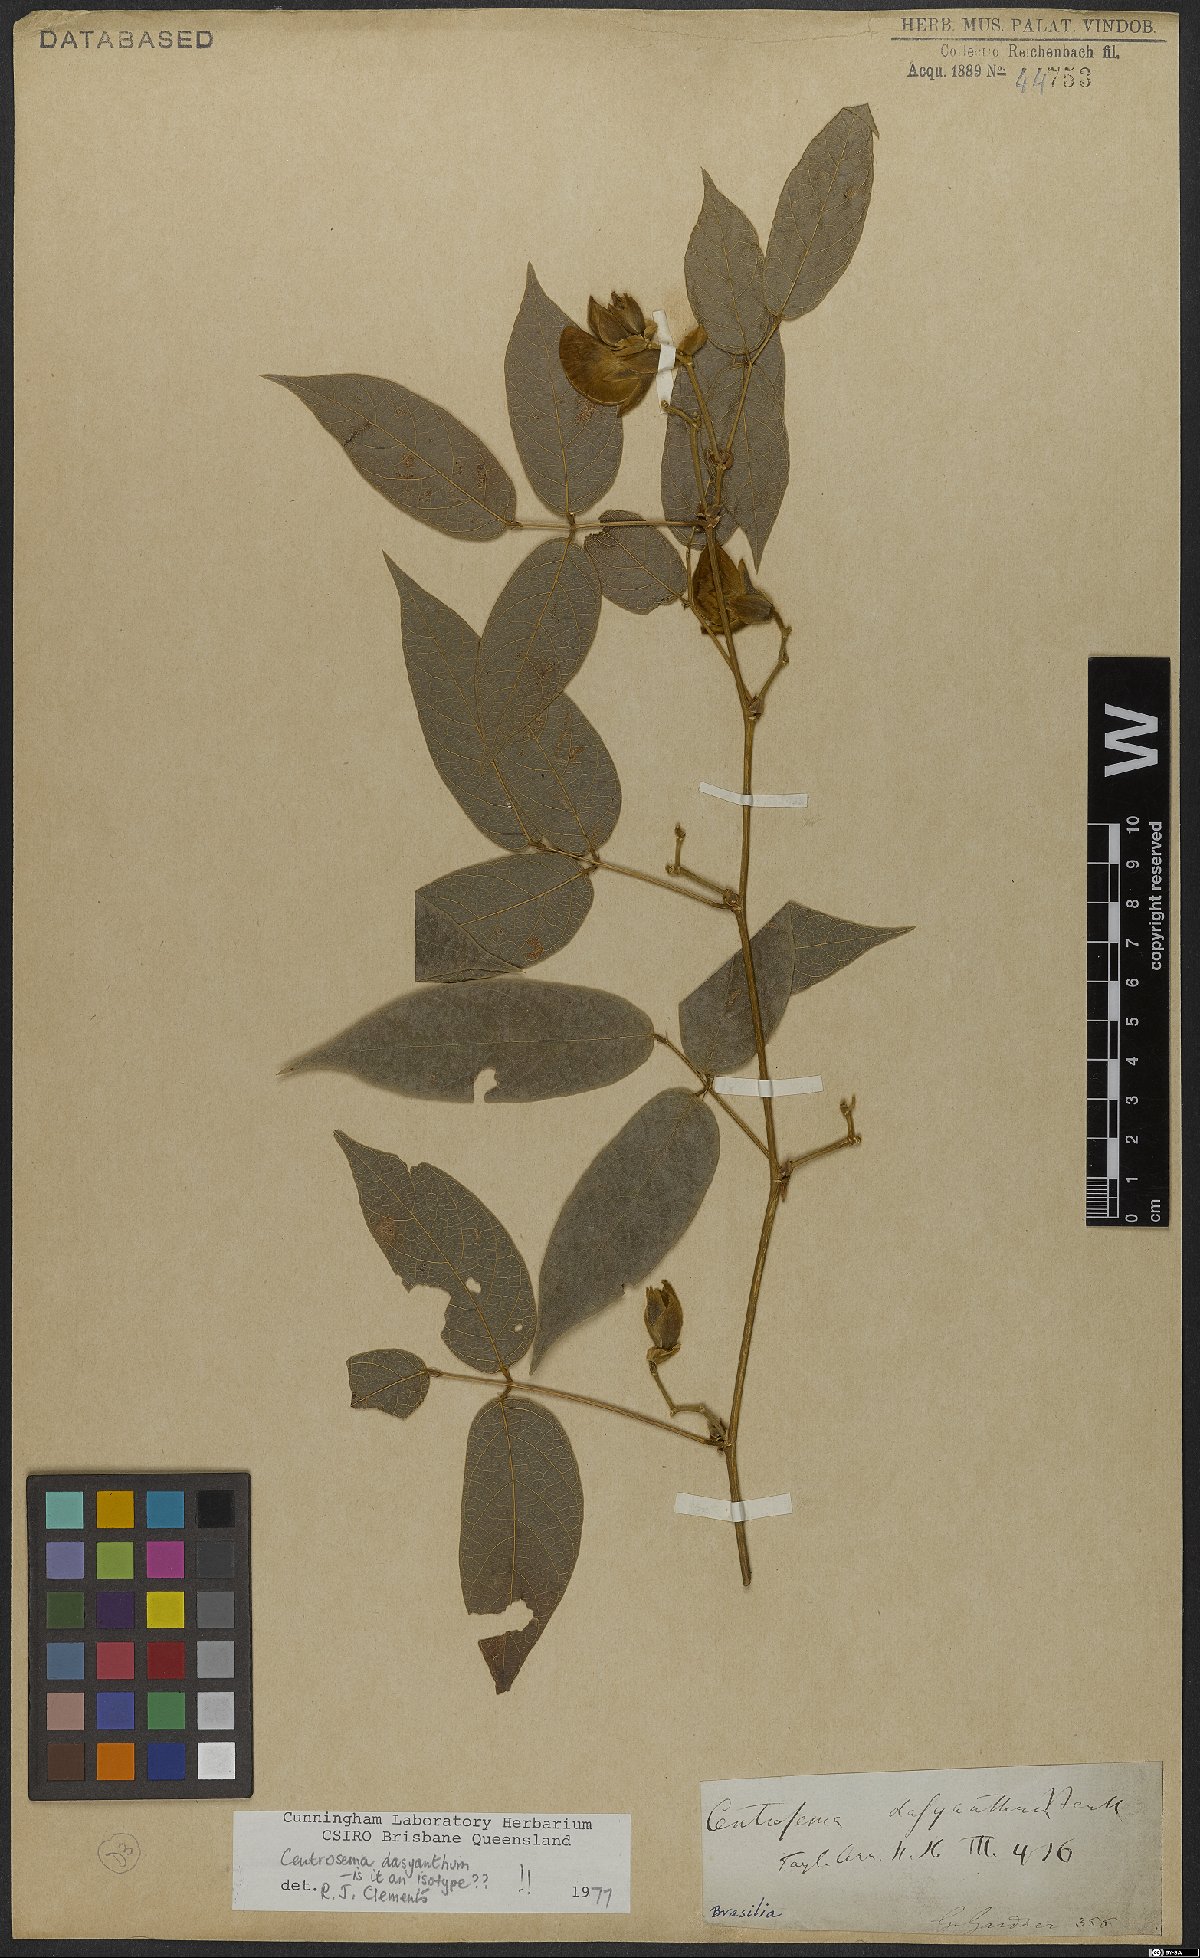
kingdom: Plantae
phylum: Tracheophyta
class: Magnoliopsida
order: Fabales
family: Fabaceae
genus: Centrosema
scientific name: Centrosema dasyanthum
